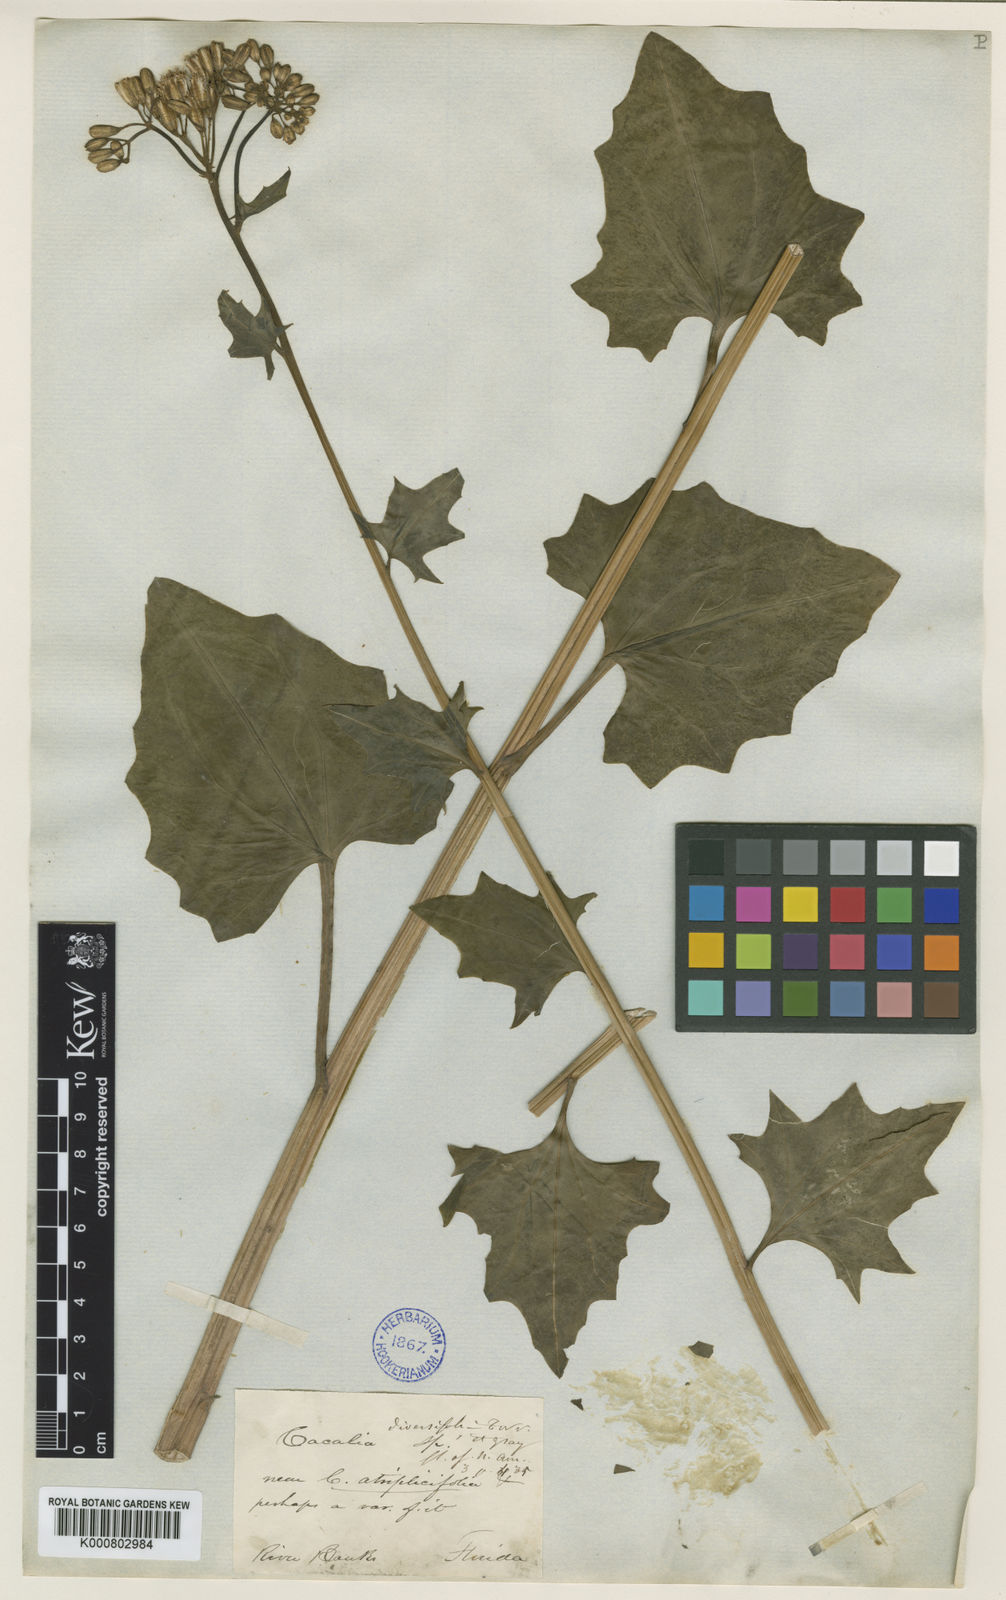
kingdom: Plantae
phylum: Tracheophyta
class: Magnoliopsida
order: Asterales
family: Asteraceae
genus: Arnoglossum
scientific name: Arnoglossum diversifolium
